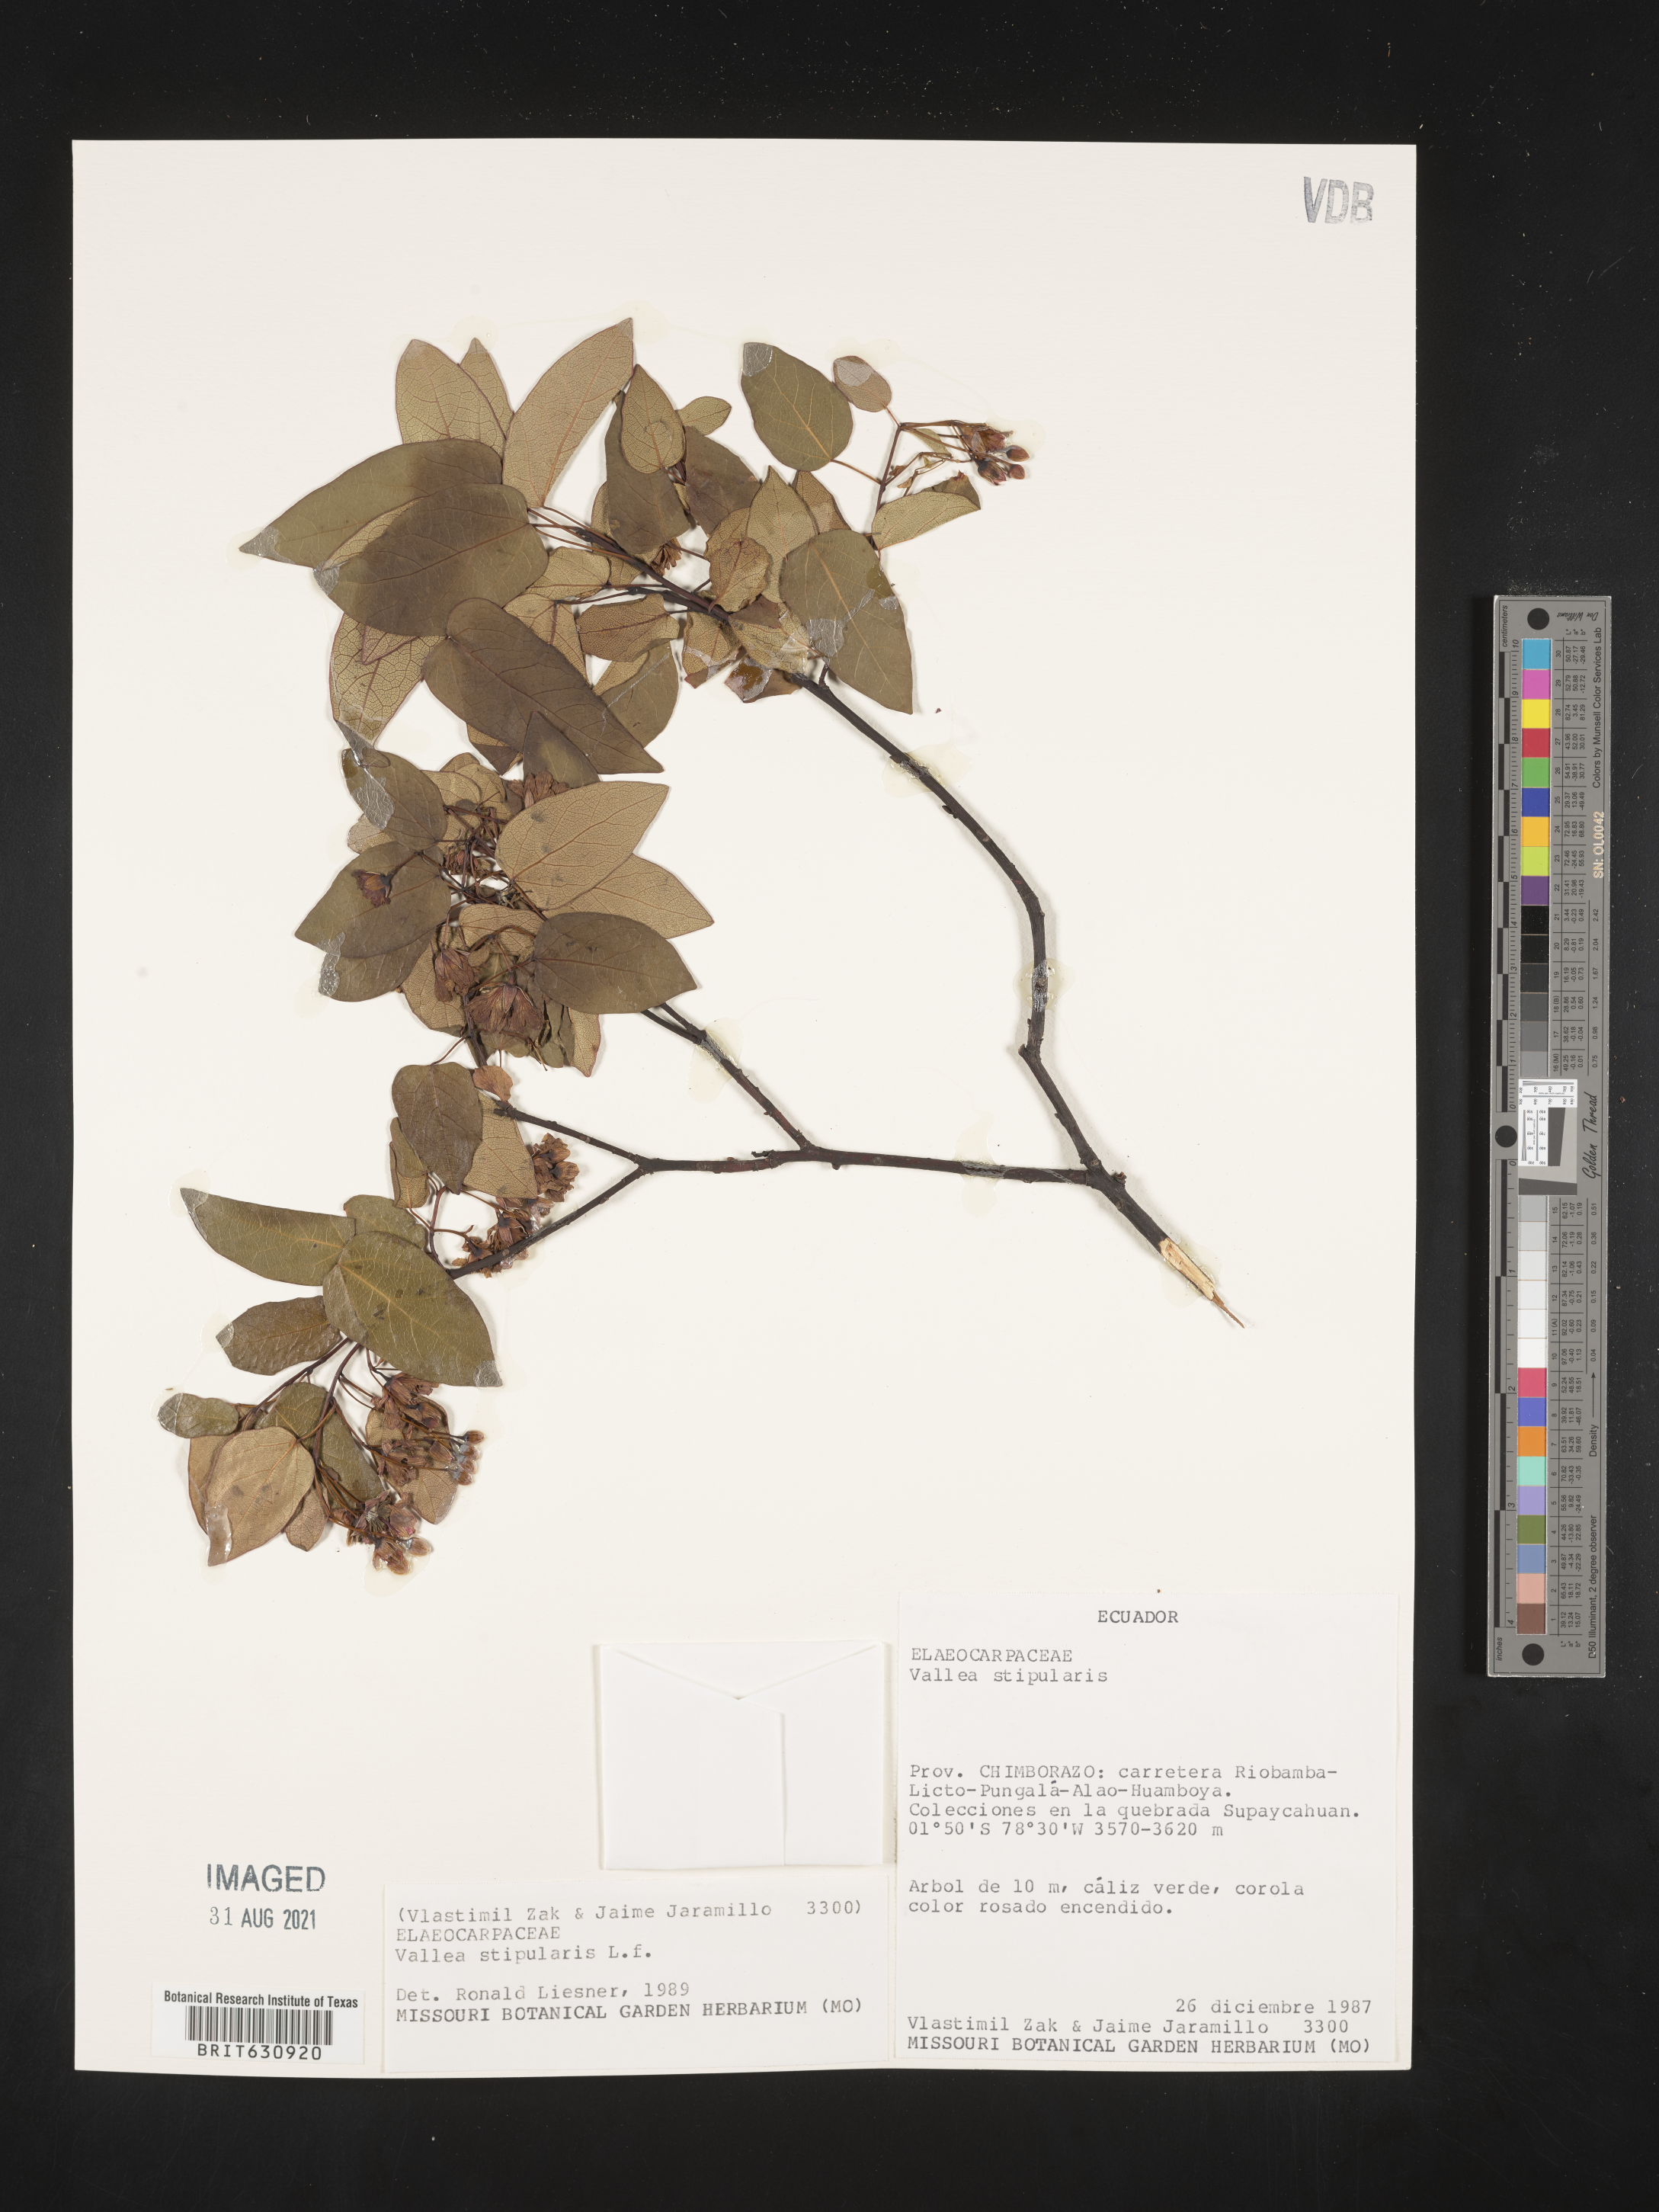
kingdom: Plantae
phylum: Tracheophyta
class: Magnoliopsida
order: Oxalidales
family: Elaeocarpaceae
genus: Vallea
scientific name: Vallea
